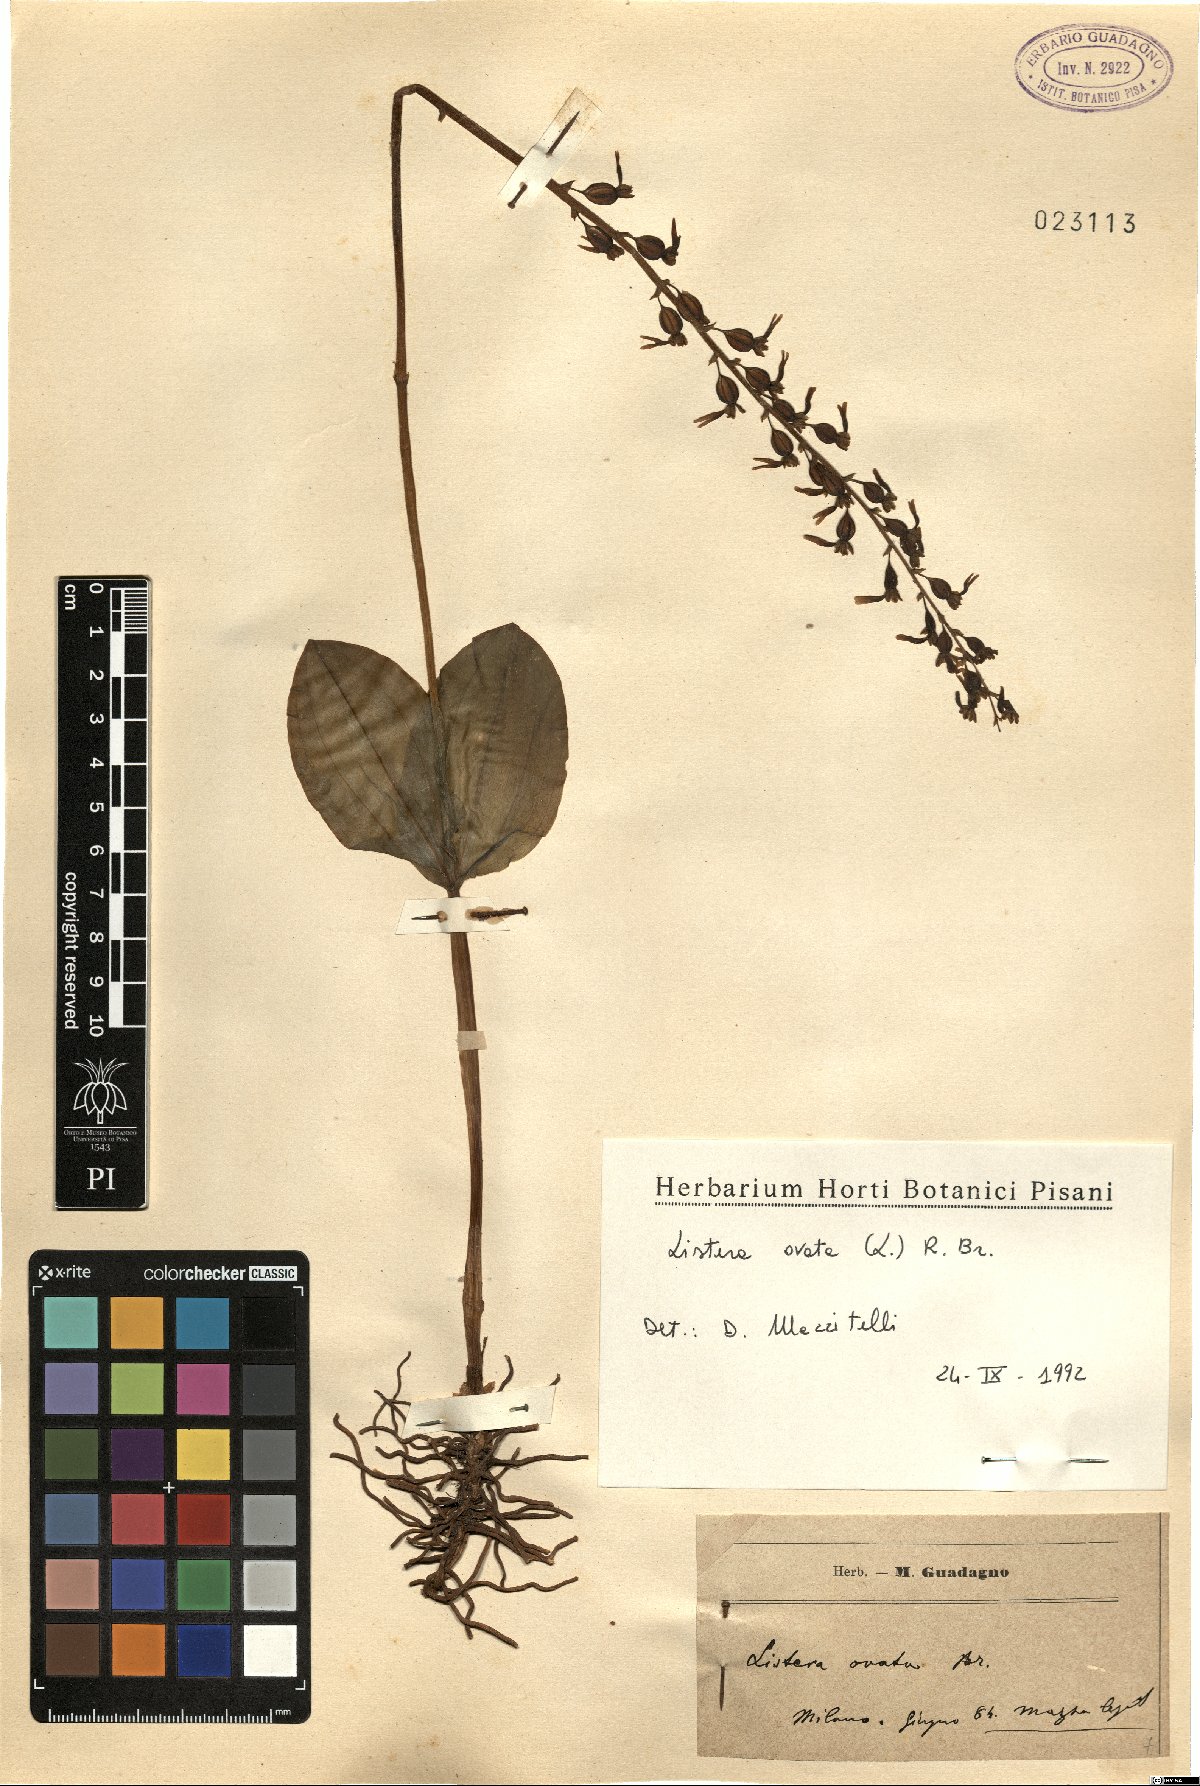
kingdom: Plantae
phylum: Tracheophyta
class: Liliopsida
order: Asparagales
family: Orchidaceae
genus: Neottia
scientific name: Neottia ovata
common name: Common twayblade
